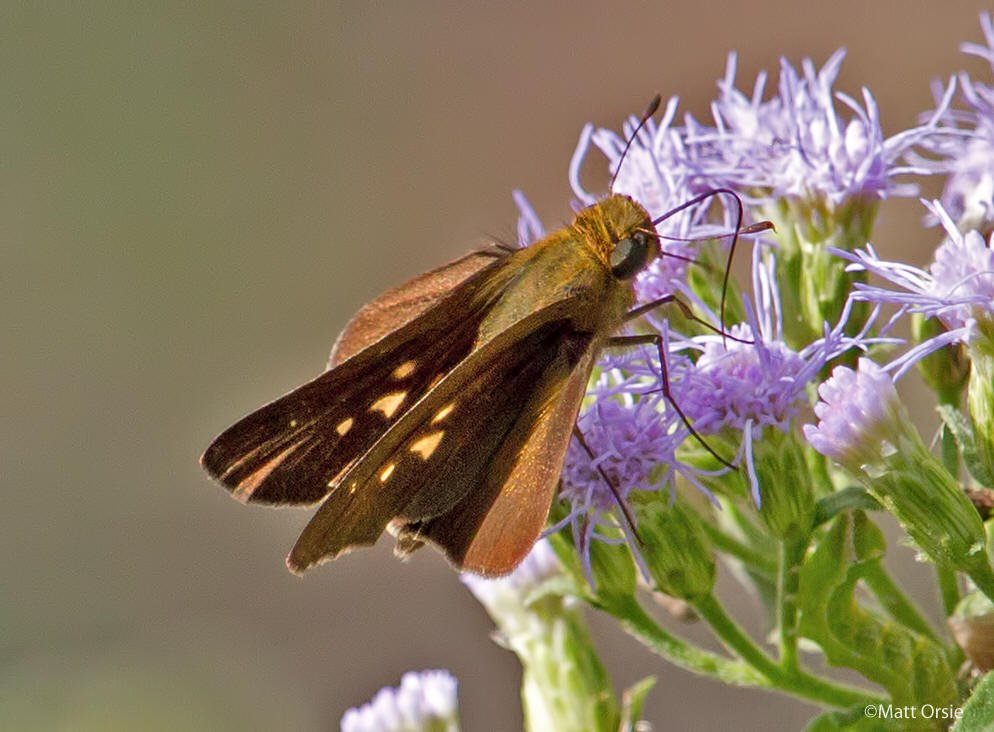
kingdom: Animalia
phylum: Arthropoda
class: Insecta
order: Lepidoptera
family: Hesperiidae
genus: Panoquina
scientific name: Panoquina hecebolus
